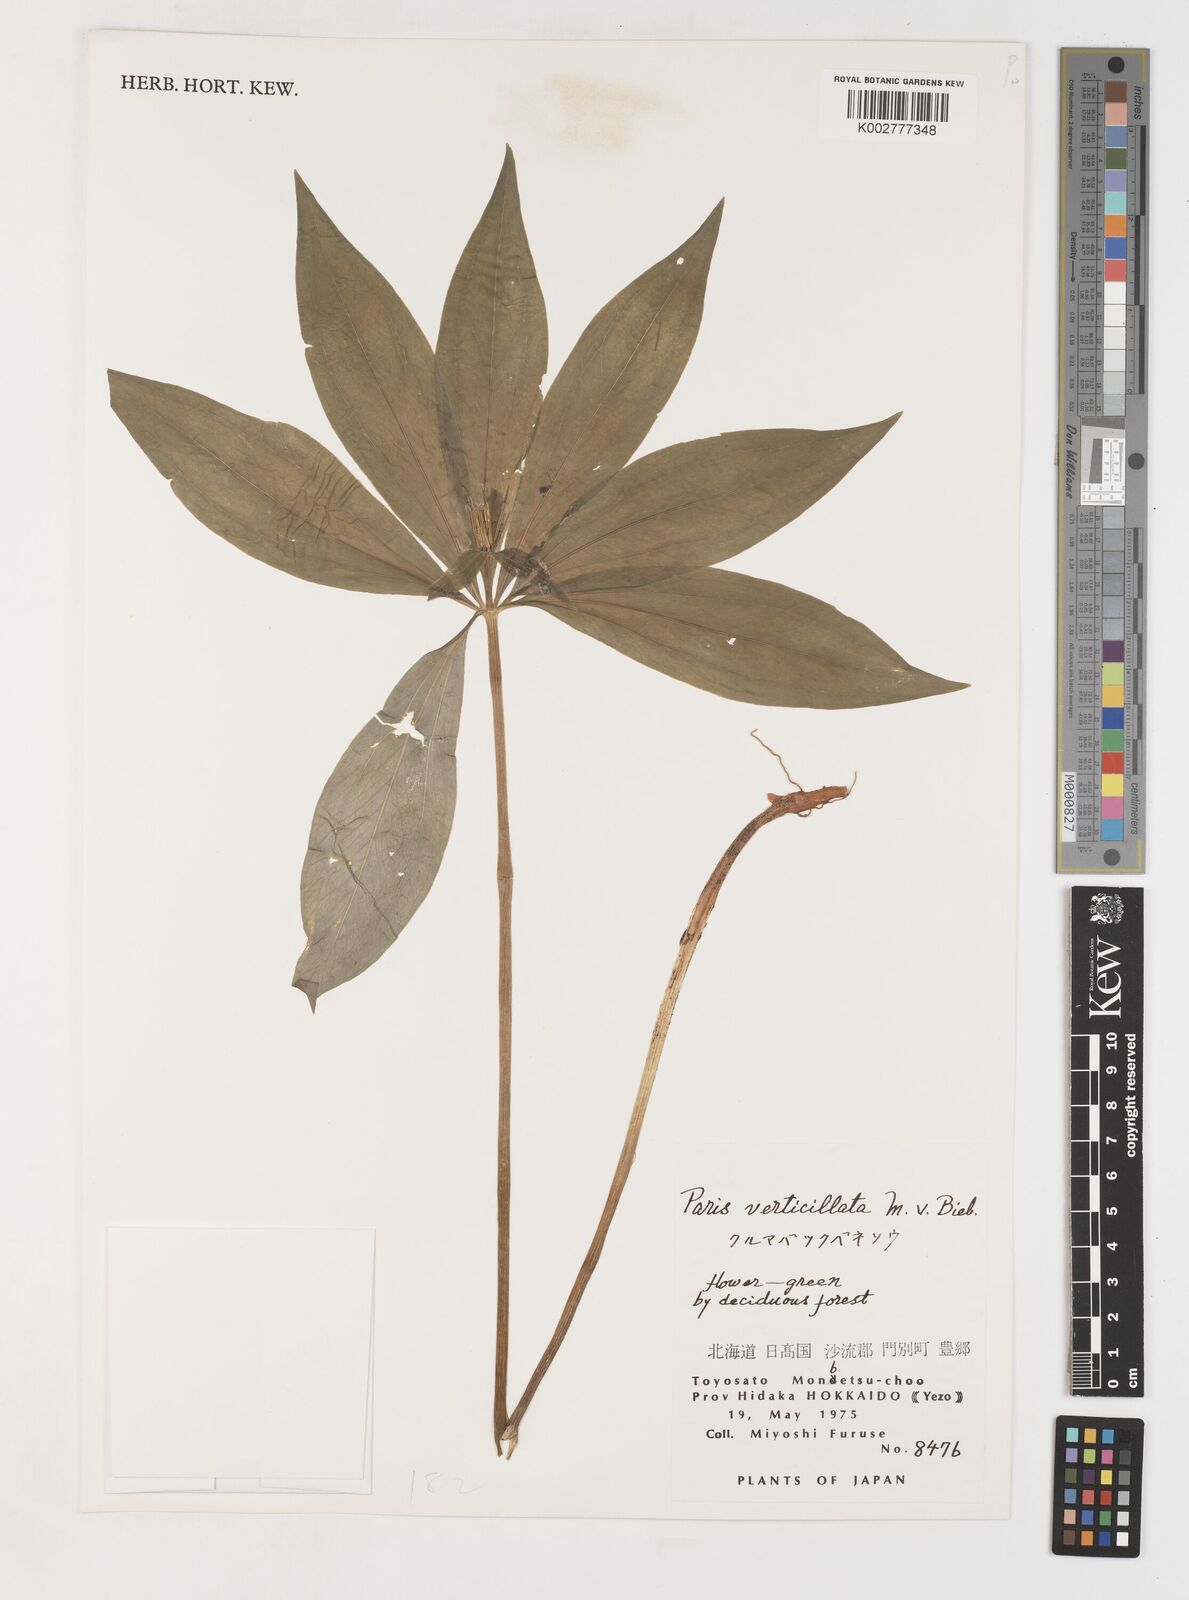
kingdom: Plantae
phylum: Tracheophyta
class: Liliopsida
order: Liliales
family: Melanthiaceae
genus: Paris
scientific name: Paris verticillata
